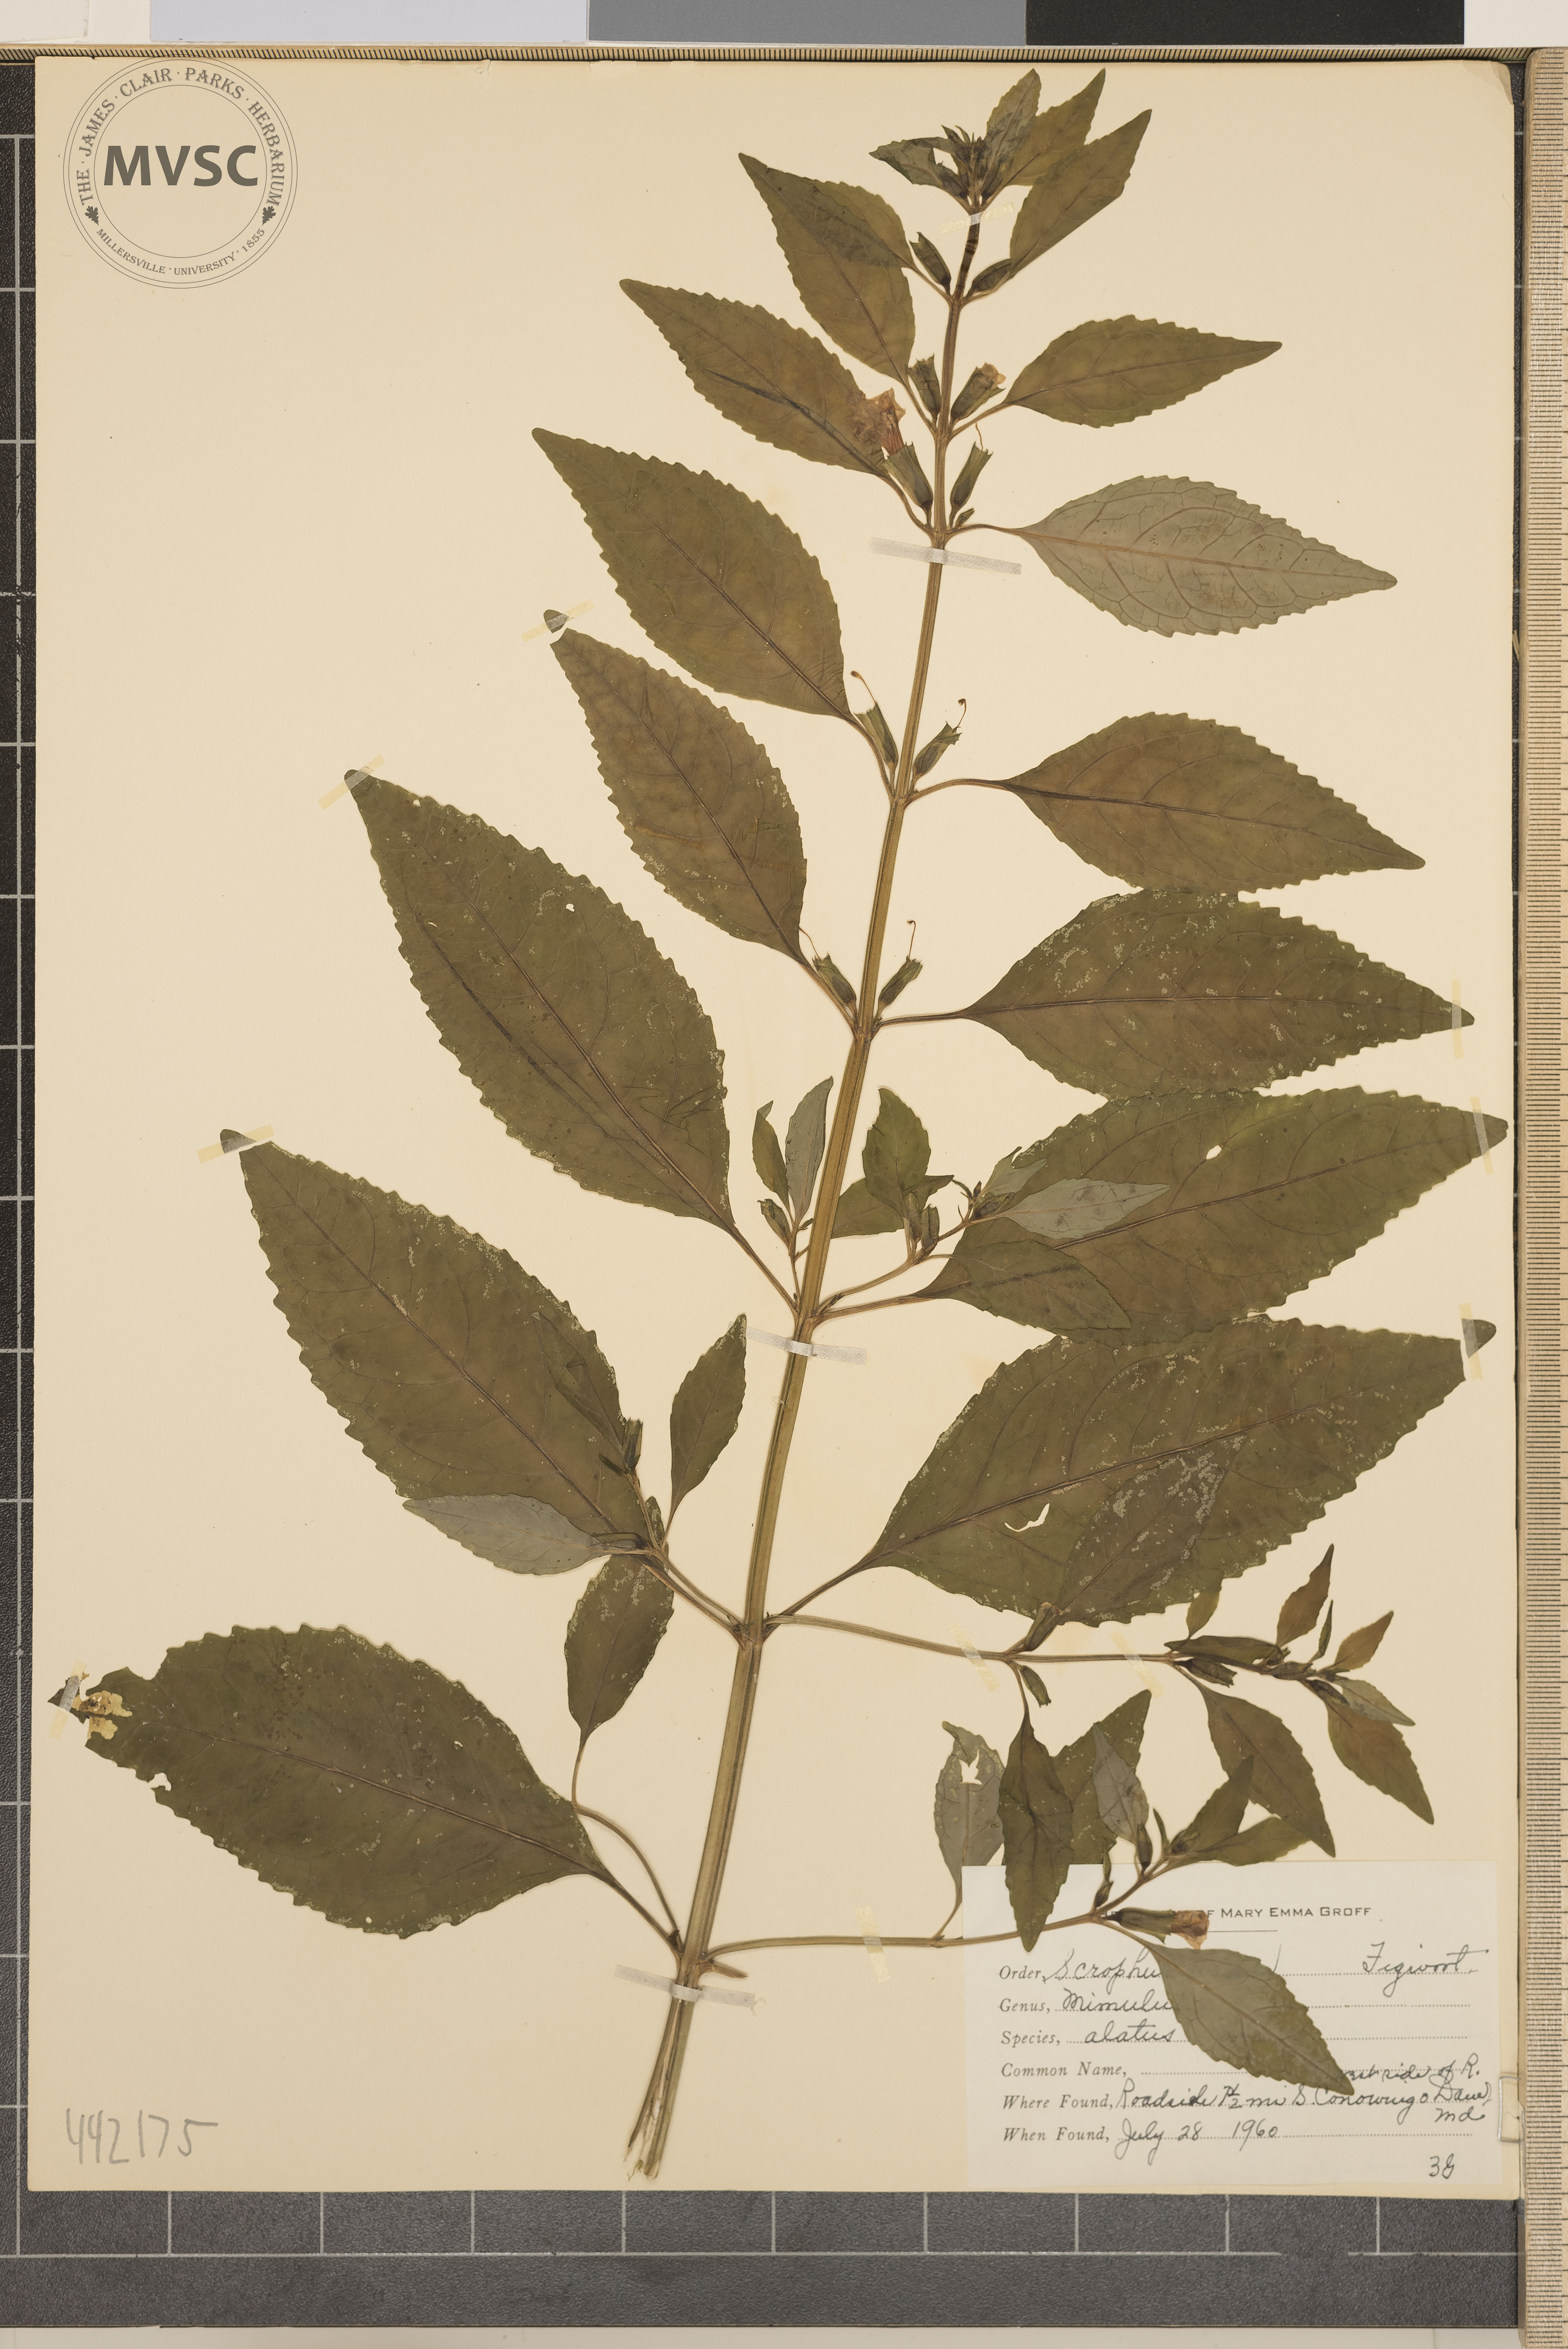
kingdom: Plantae
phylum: Tracheophyta
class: Magnoliopsida
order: Lamiales
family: Phrymaceae
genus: Mimulus
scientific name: Mimulus alatus
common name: Sharp-wing monkey-flower
